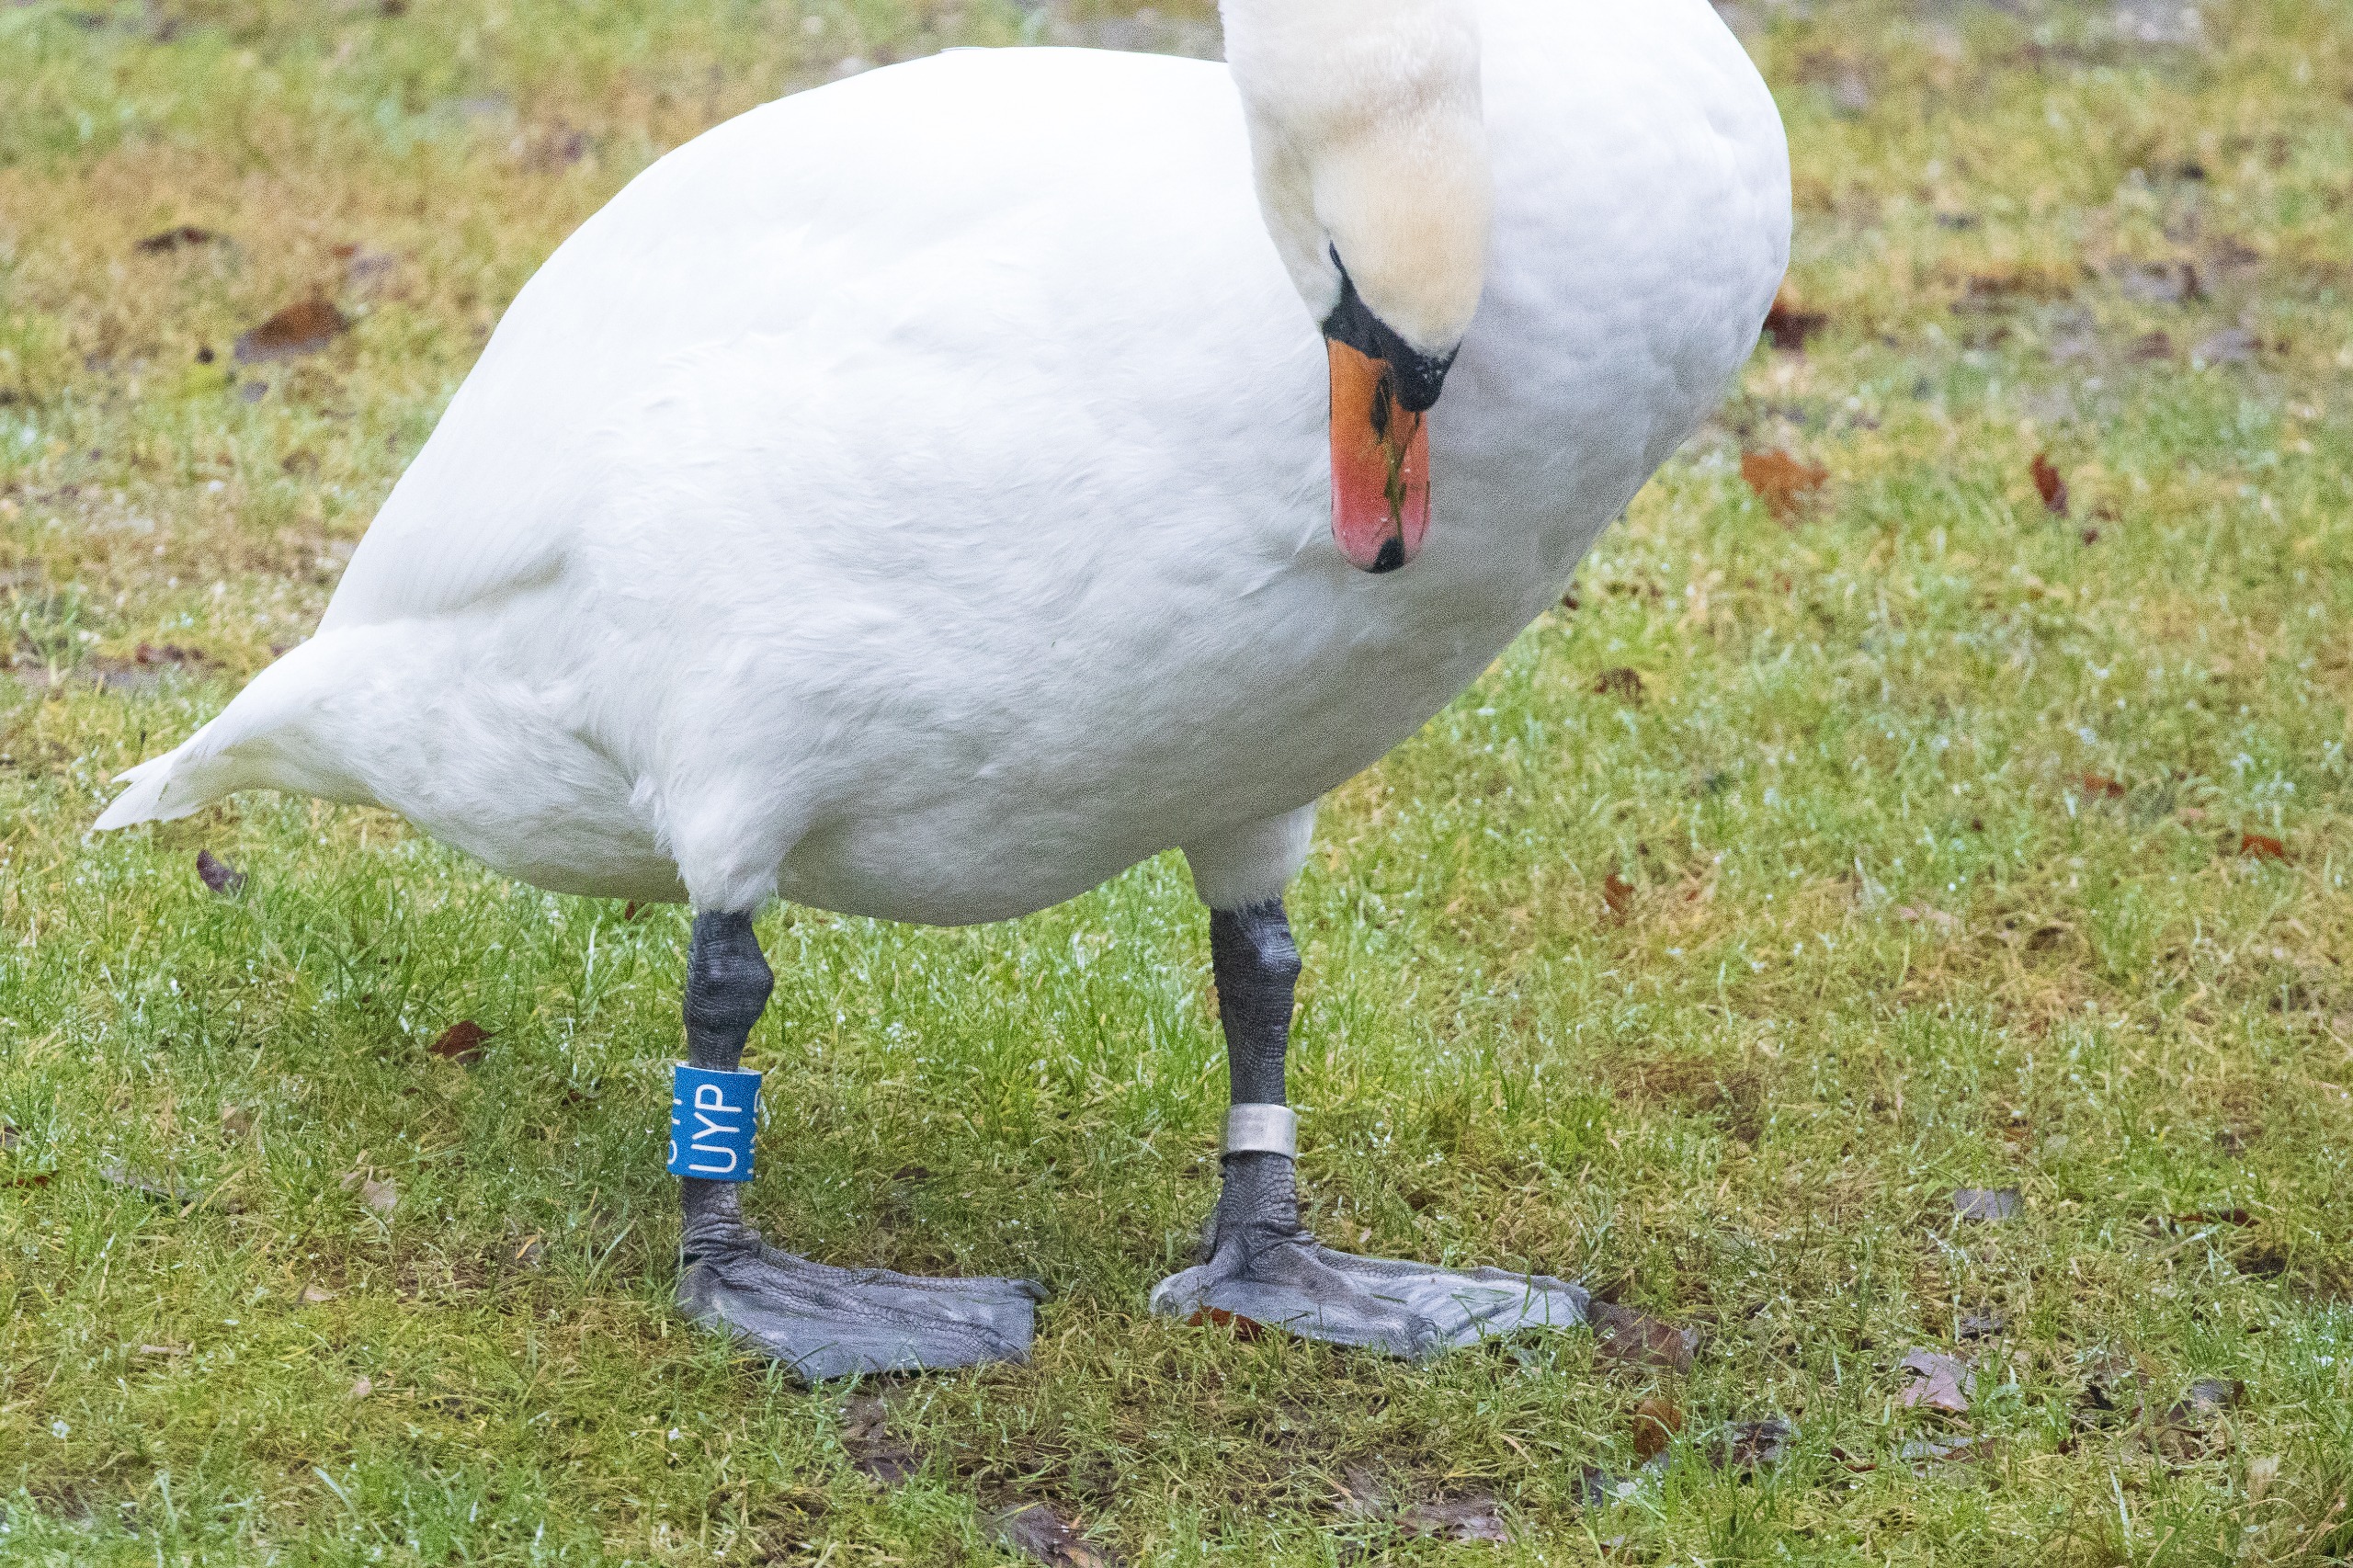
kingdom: Animalia
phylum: Chordata
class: Aves
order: Anseriformes
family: Anatidae
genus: Cygnus
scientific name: Cygnus olor
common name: Knopsvane
